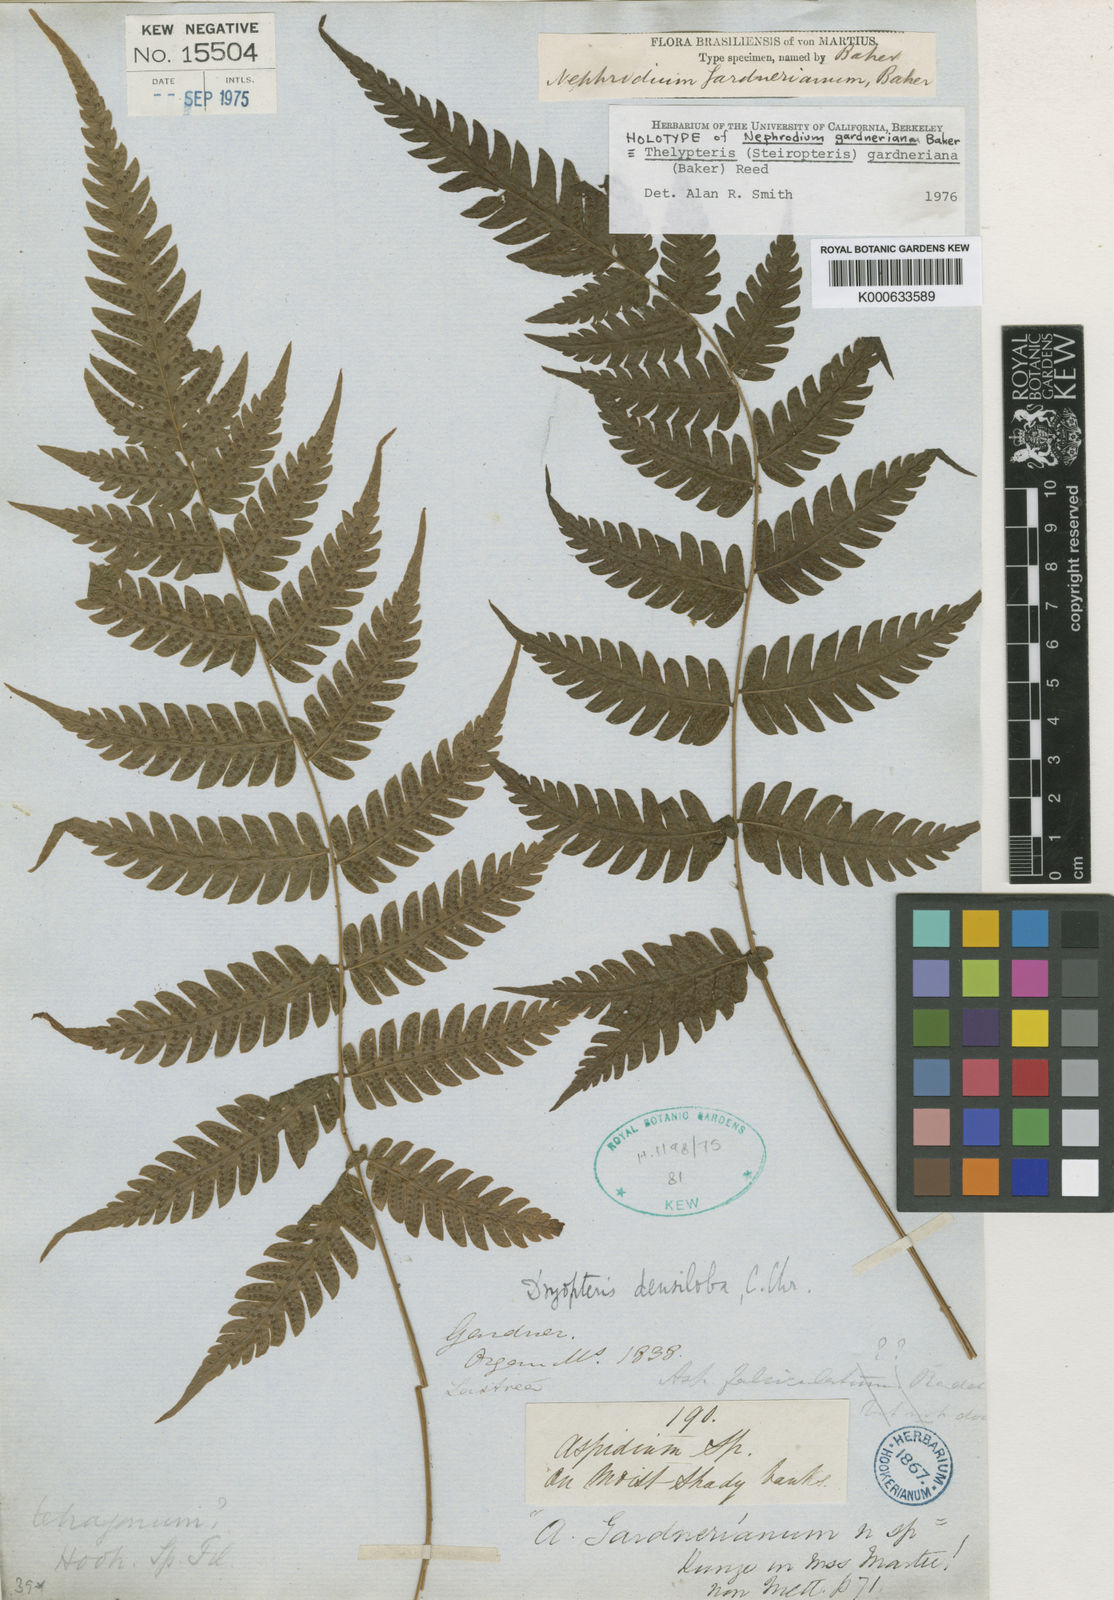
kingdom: Plantae
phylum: Tracheophyta
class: Polypodiopsida
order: Polypodiales
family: Thelypteridaceae
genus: Steiropteris
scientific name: Steiropteris gardneriana
